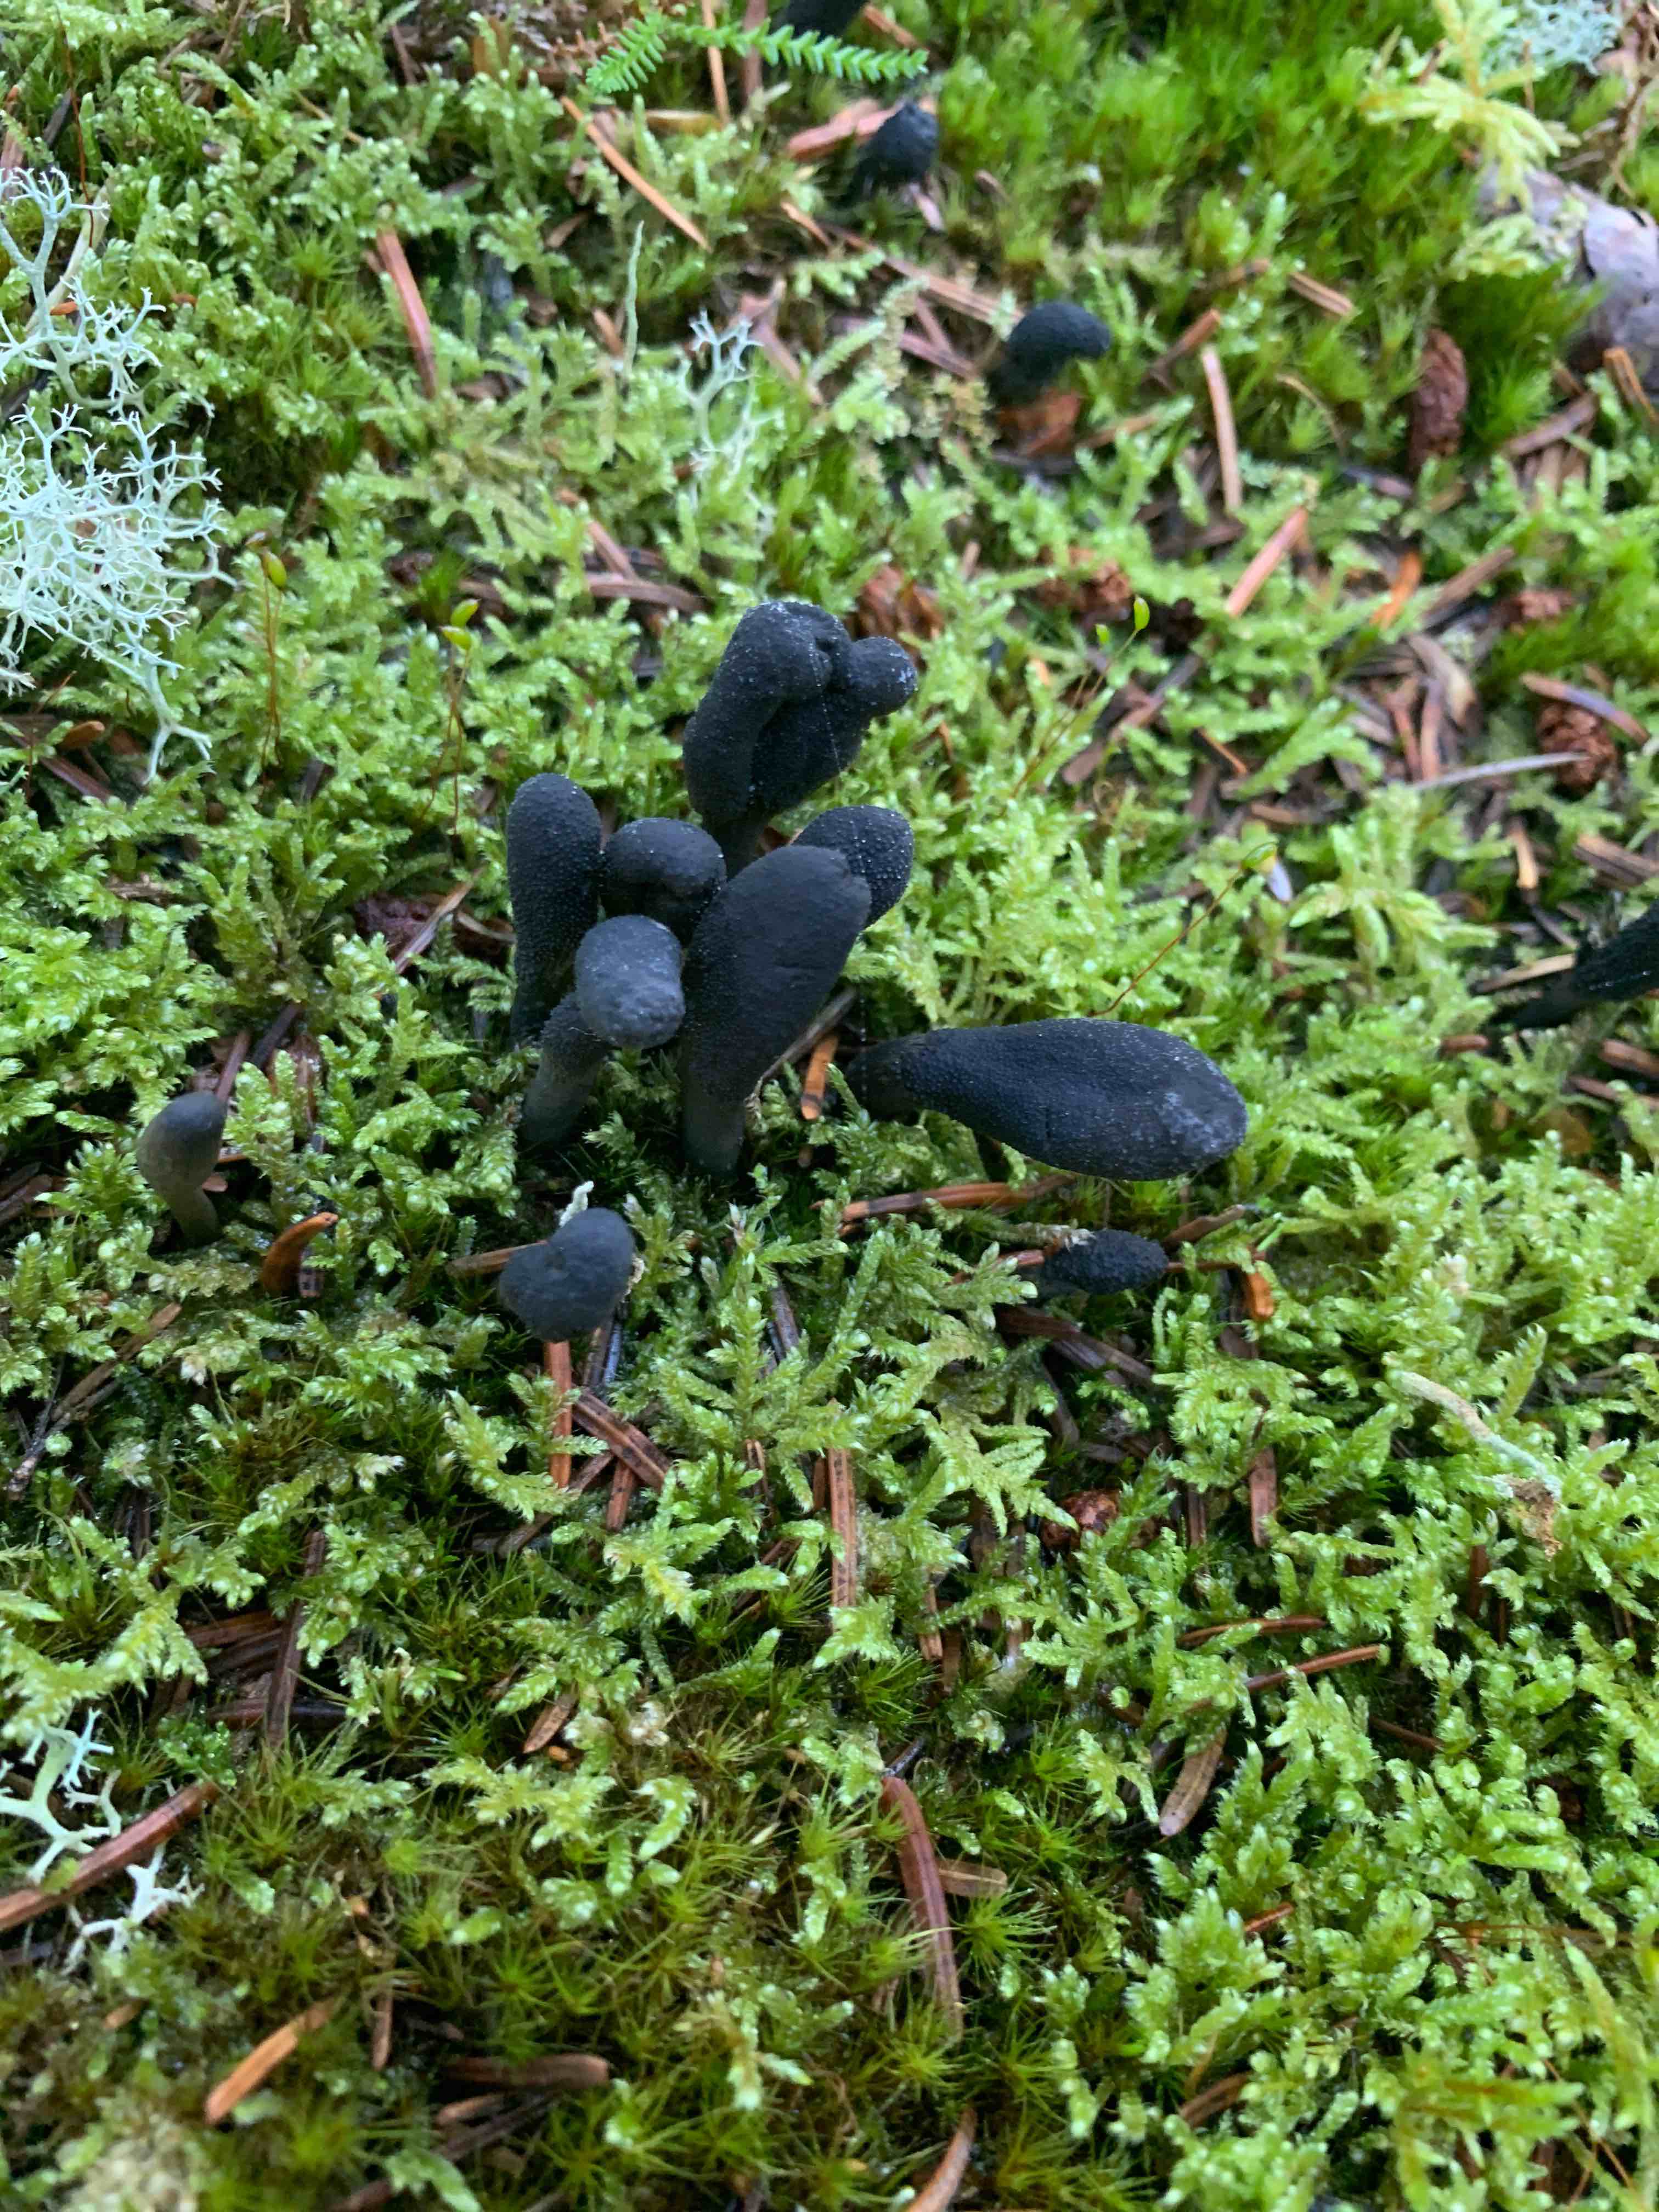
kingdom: Fungi
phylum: Ascomycota
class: Sordariomycetes
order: Hypocreales
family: Ophiocordycipitaceae
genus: Tolypocladium
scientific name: Tolypocladium ophioglossoides
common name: slank snyltekølle
